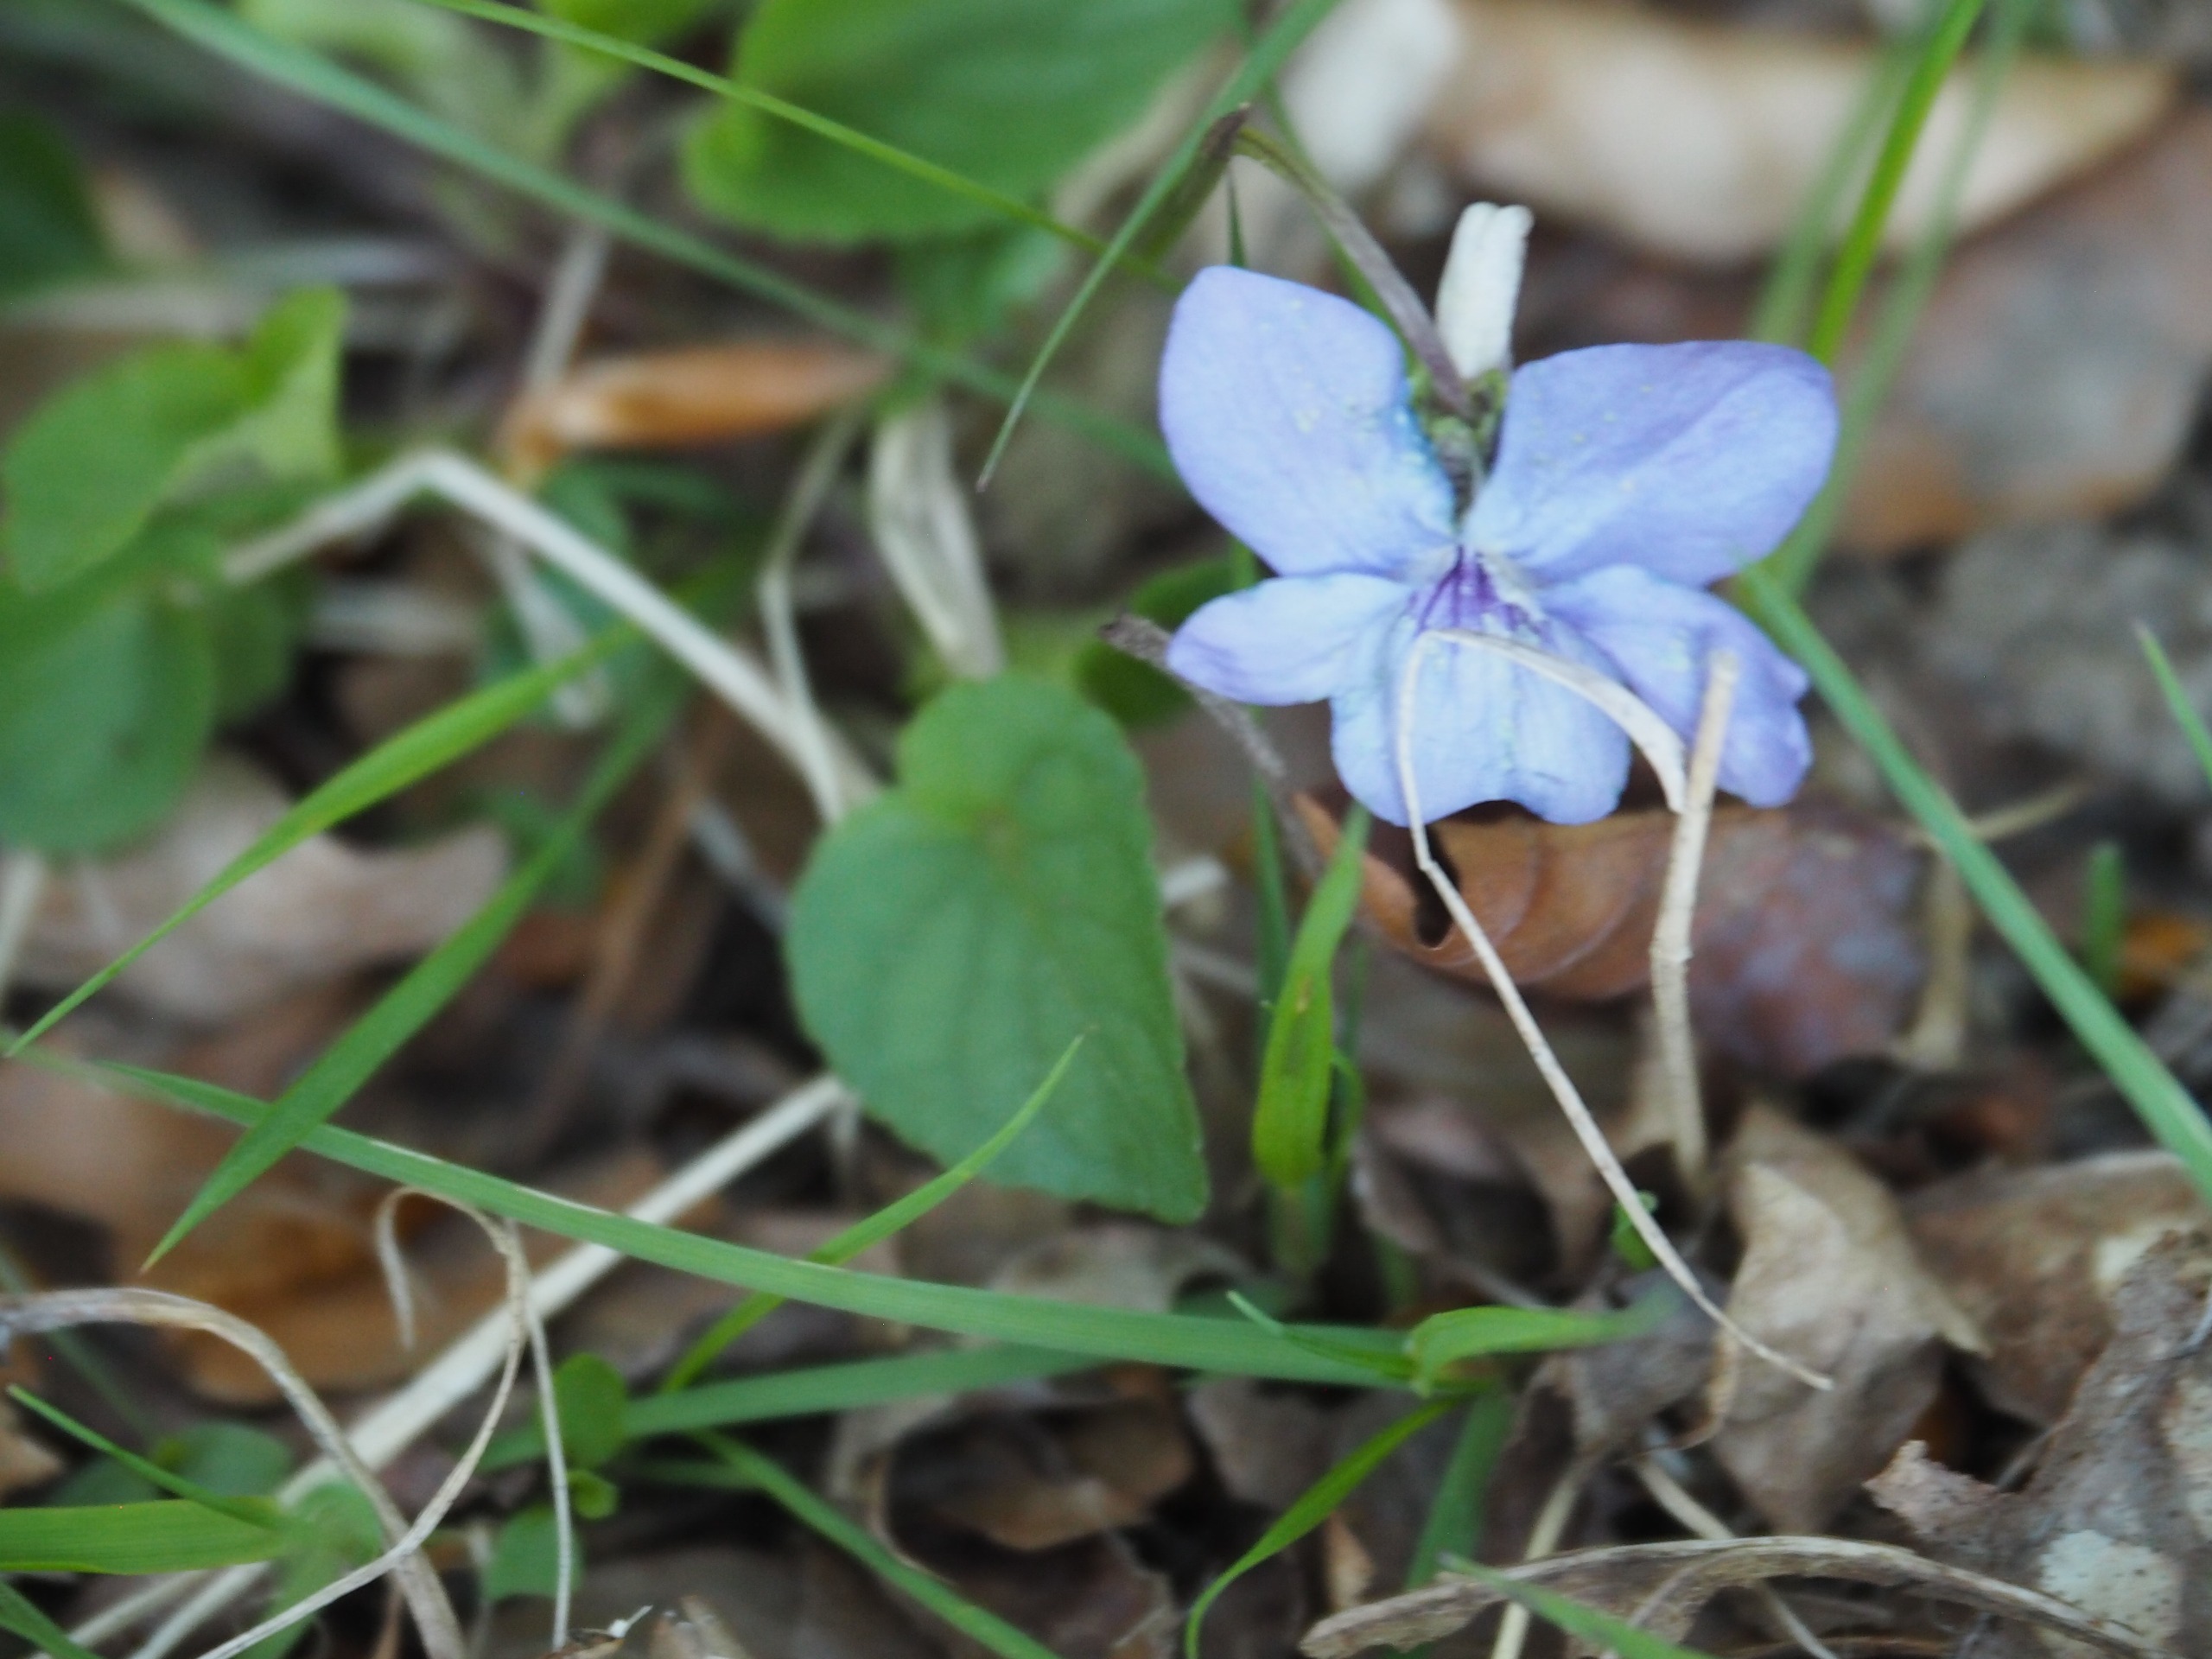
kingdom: Plantae
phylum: Tracheophyta
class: Magnoliopsida
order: Malpighiales
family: Violaceae
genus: Viola
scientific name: Viola riviniana
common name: Krat-viol
